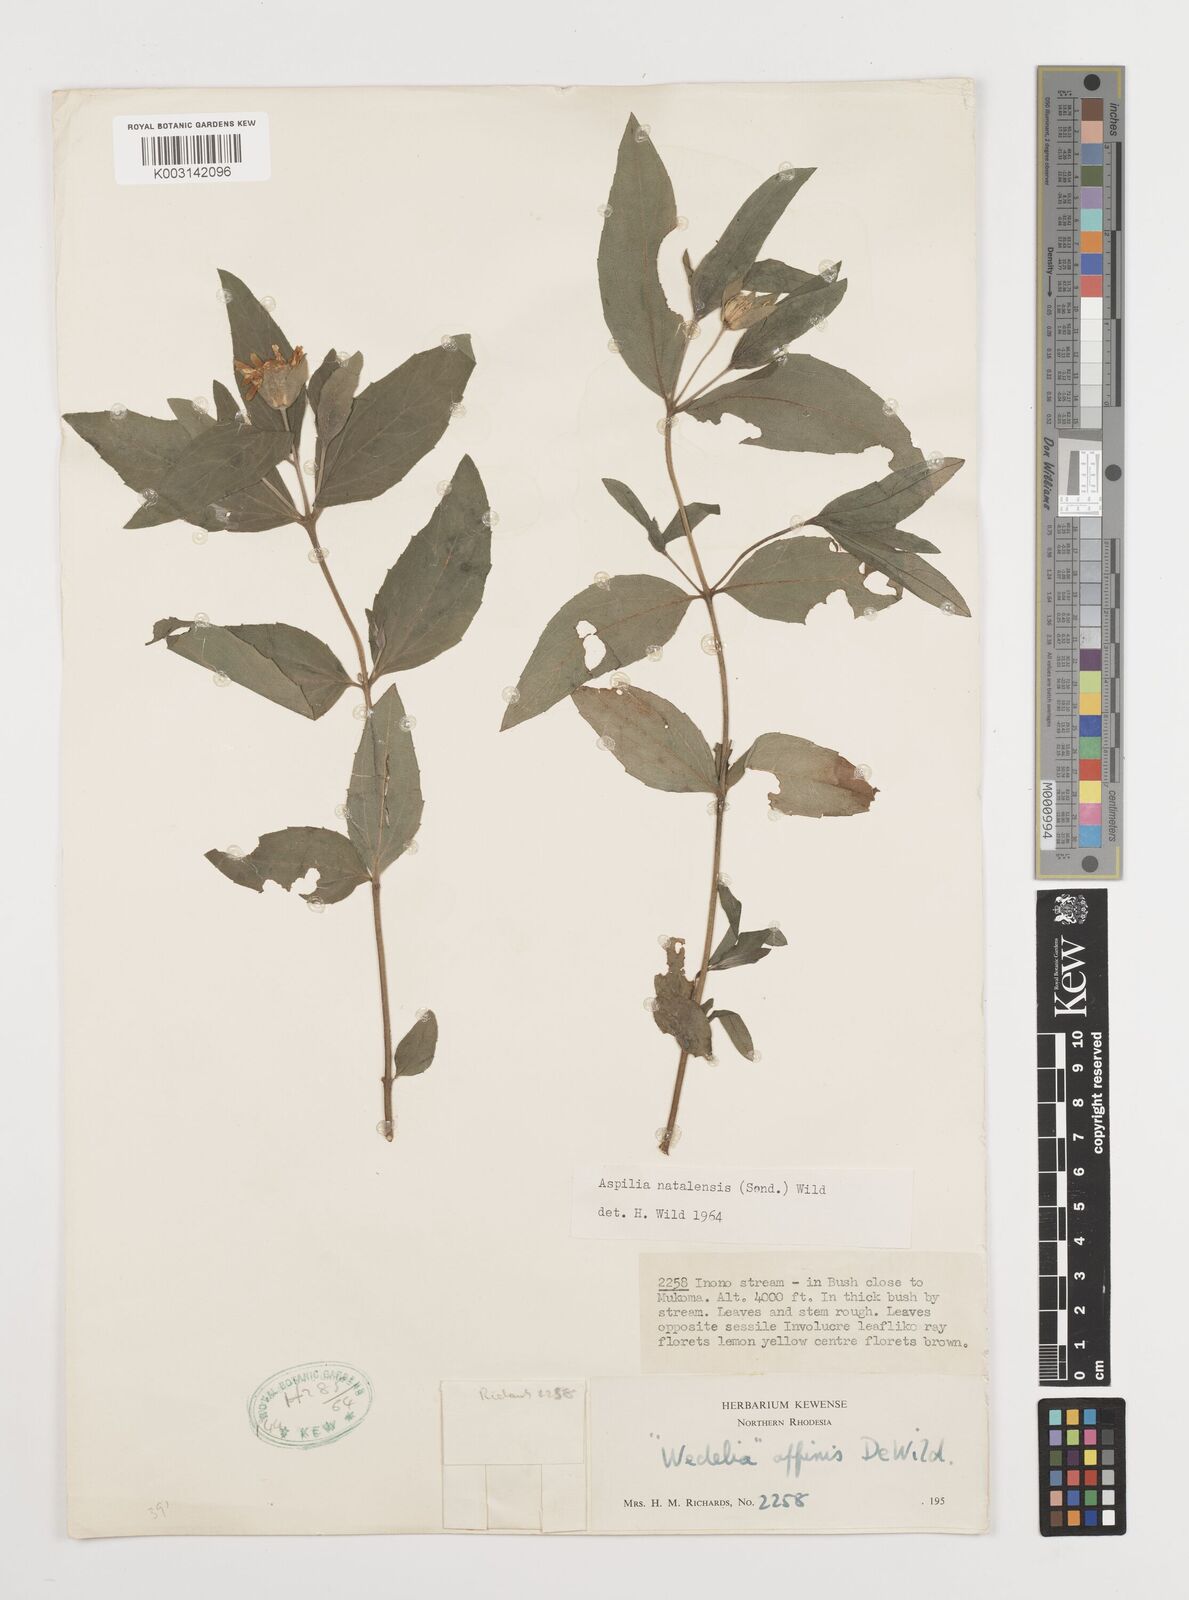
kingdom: Plantae
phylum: Tracheophyta
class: Magnoliopsida
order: Asterales
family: Asteraceae
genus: Aspilia
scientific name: Aspilia angolensis
